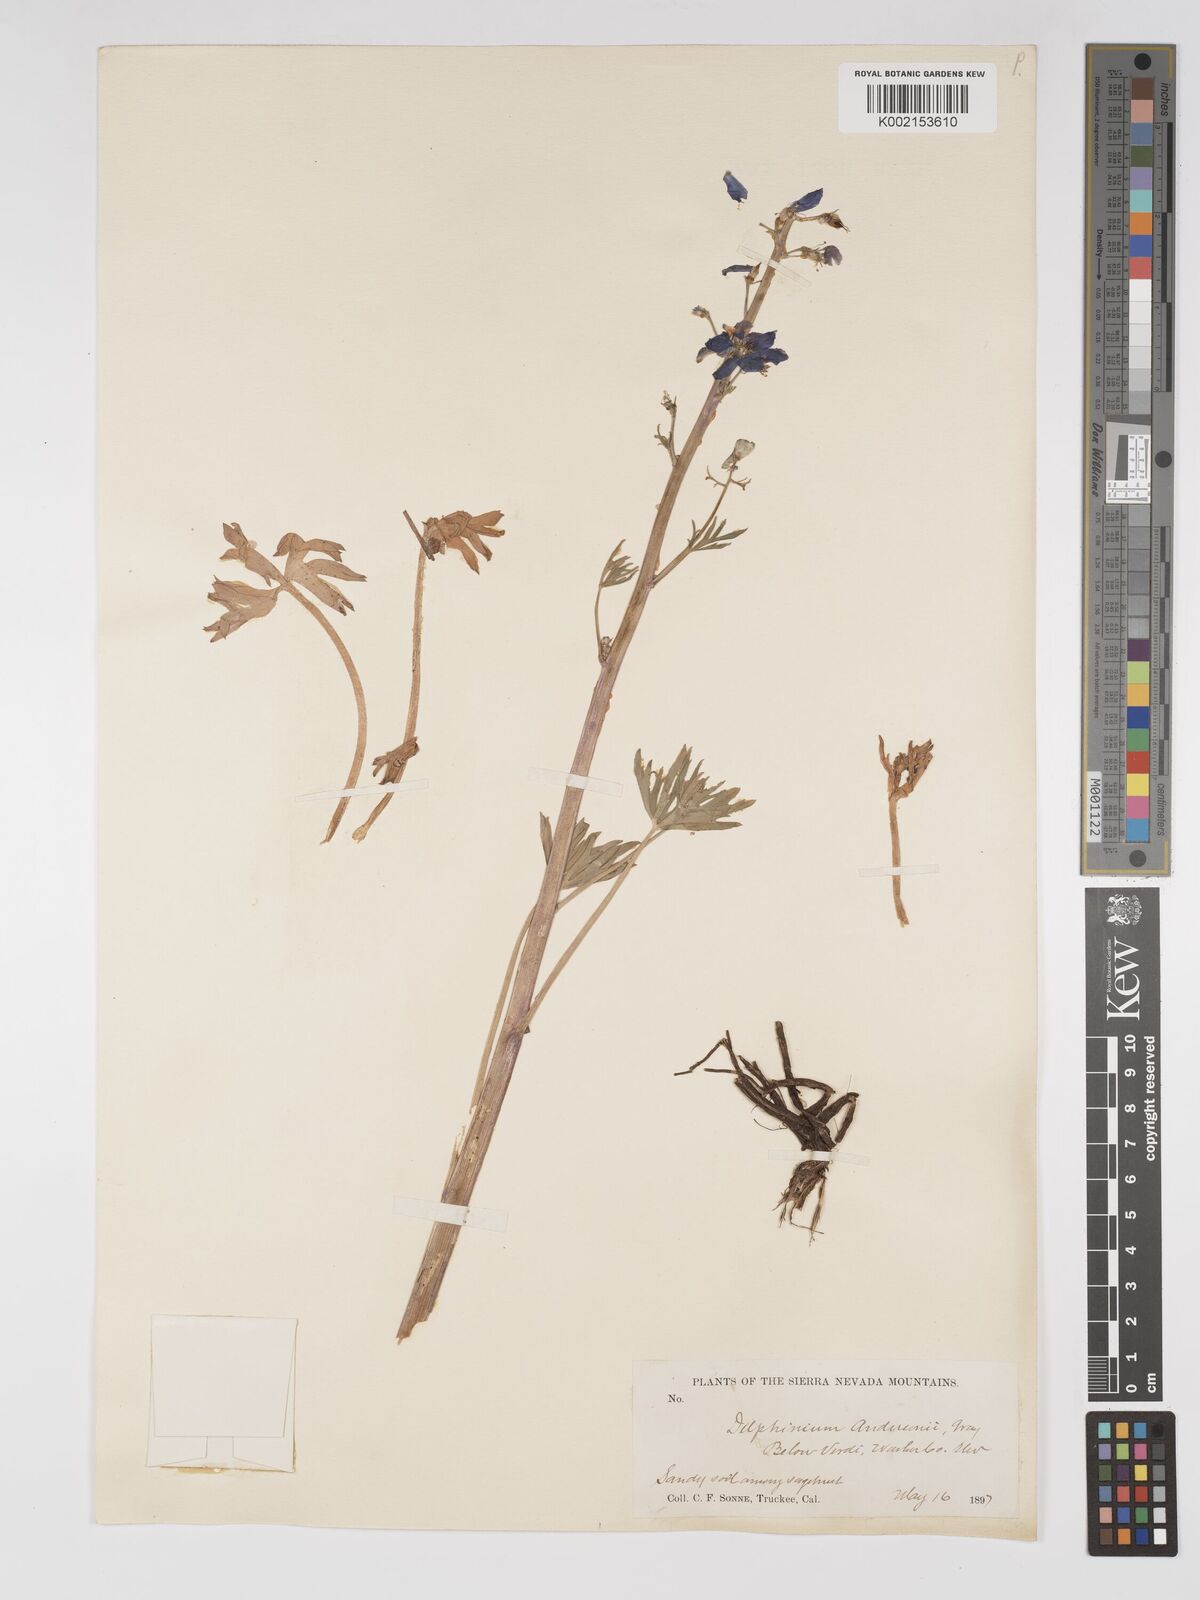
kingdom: Plantae
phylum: Tracheophyta
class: Magnoliopsida
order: Ranunculales
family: Ranunculaceae
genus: Delphinium
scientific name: Delphinium andersonii
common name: Anderson's larkspur
